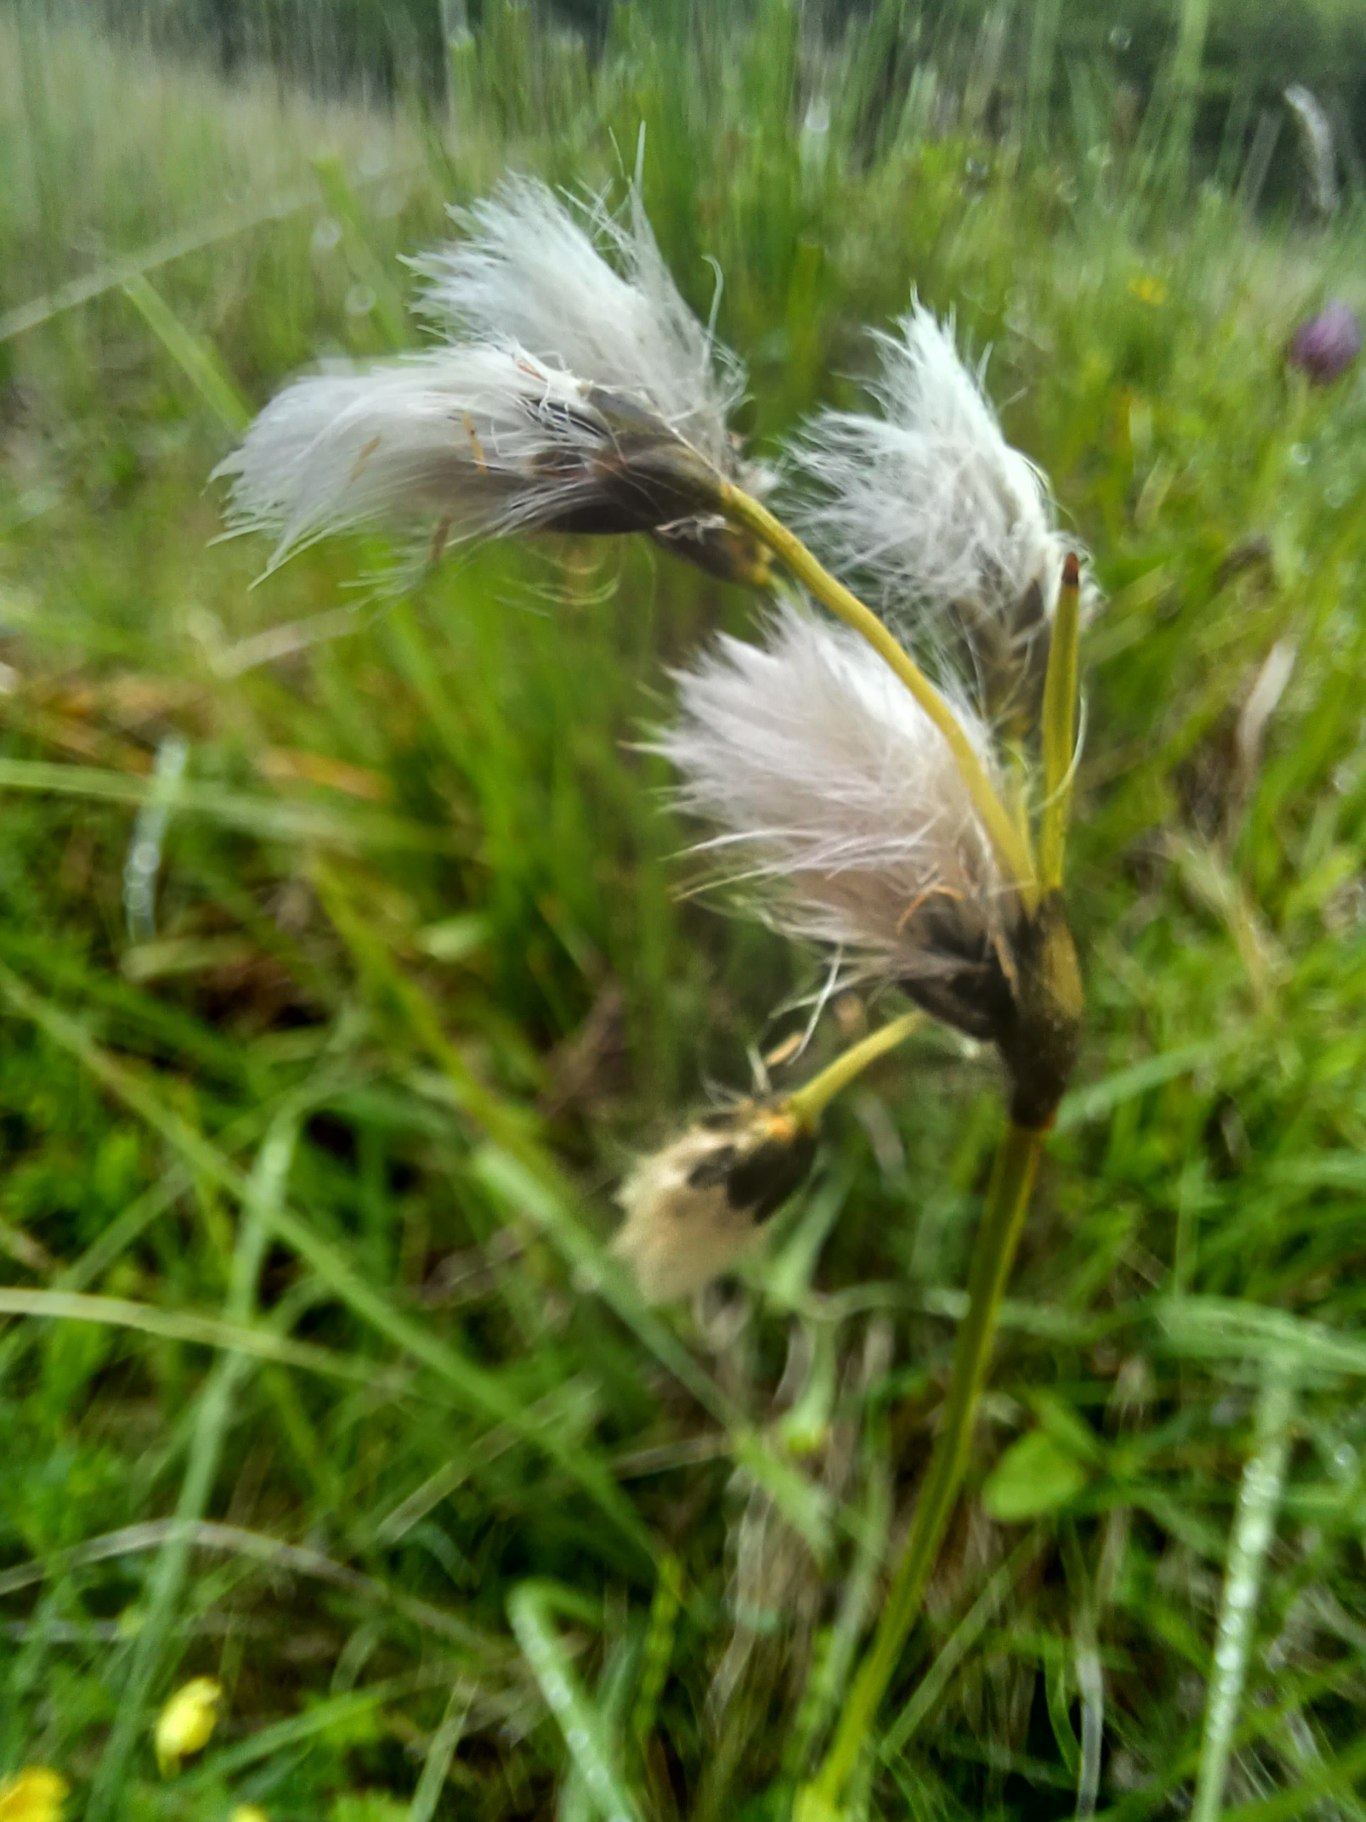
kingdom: Plantae
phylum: Tracheophyta
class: Liliopsida
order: Poales
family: Cyperaceae
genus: Eriophorum
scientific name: Eriophorum latifolium
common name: Bredbladet kæruld
